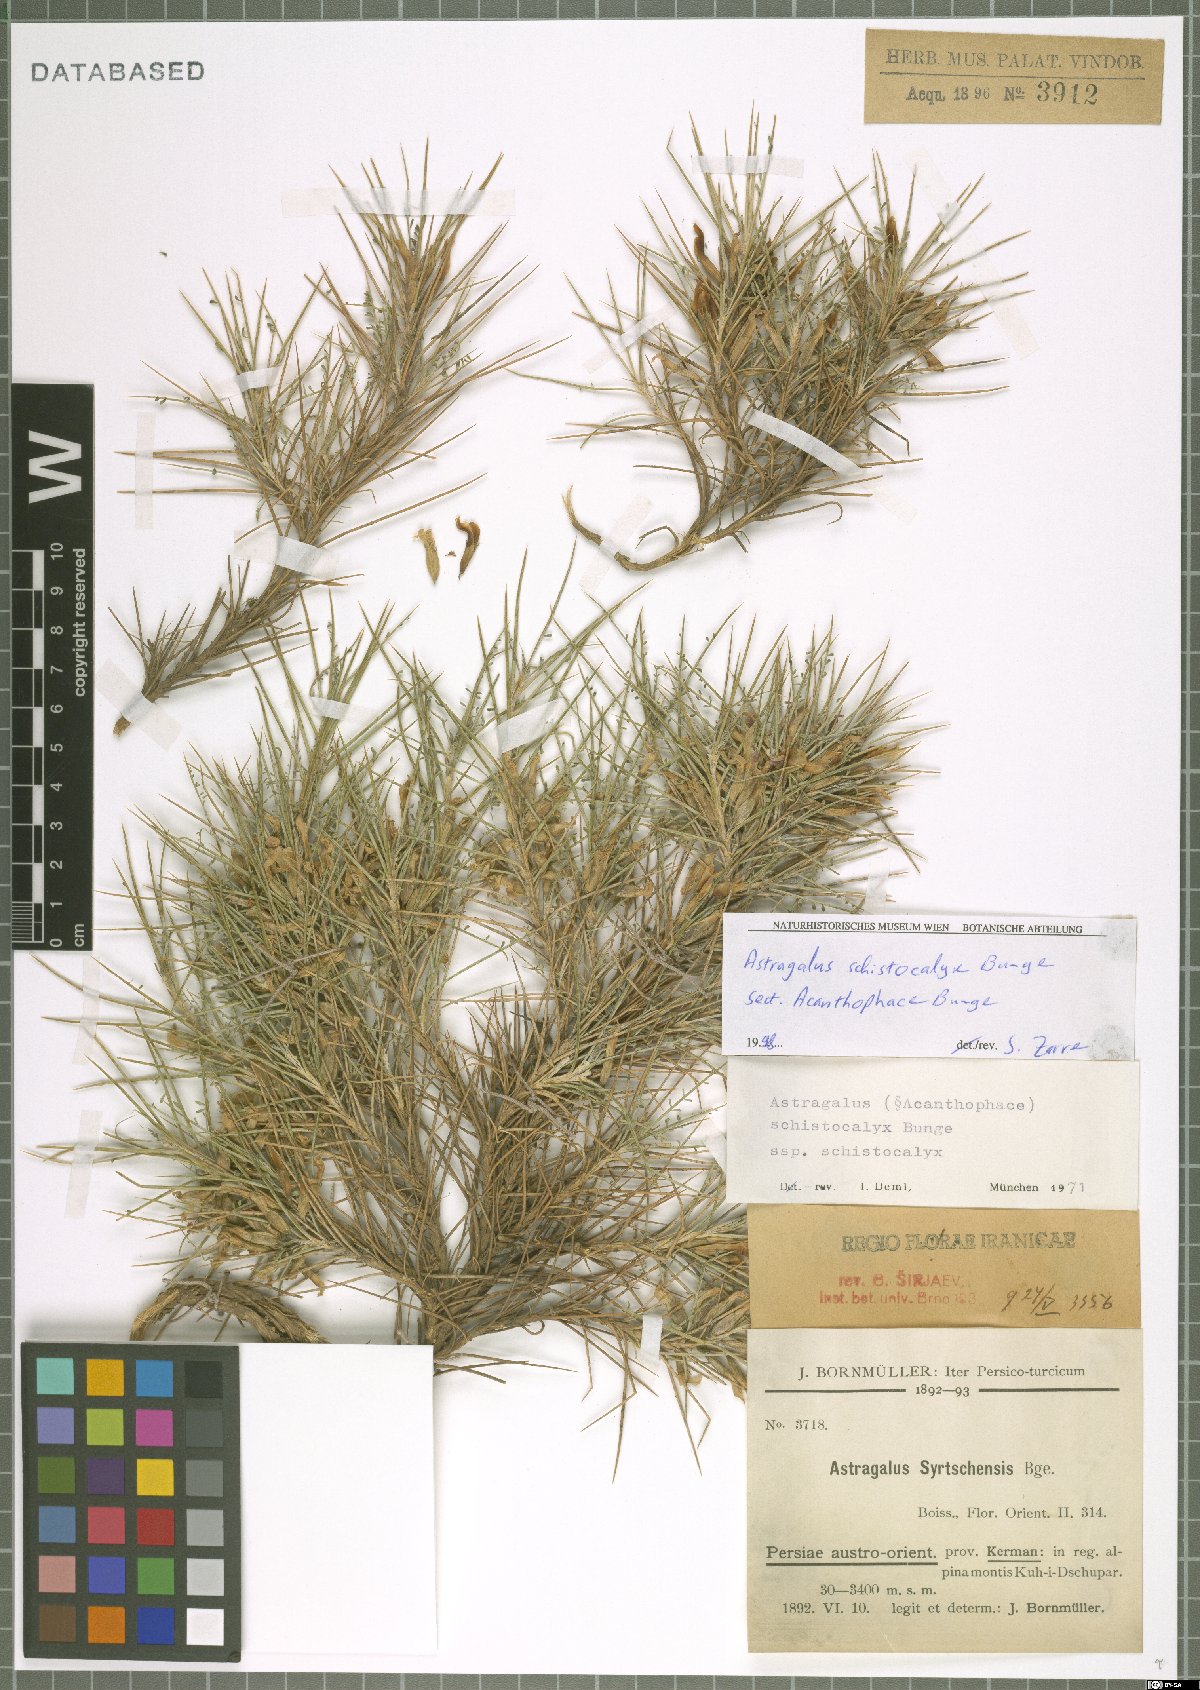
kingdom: Plantae
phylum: Tracheophyta
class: Magnoliopsida
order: Fabales
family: Fabaceae
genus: Astragalus
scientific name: Astragalus lycioides
